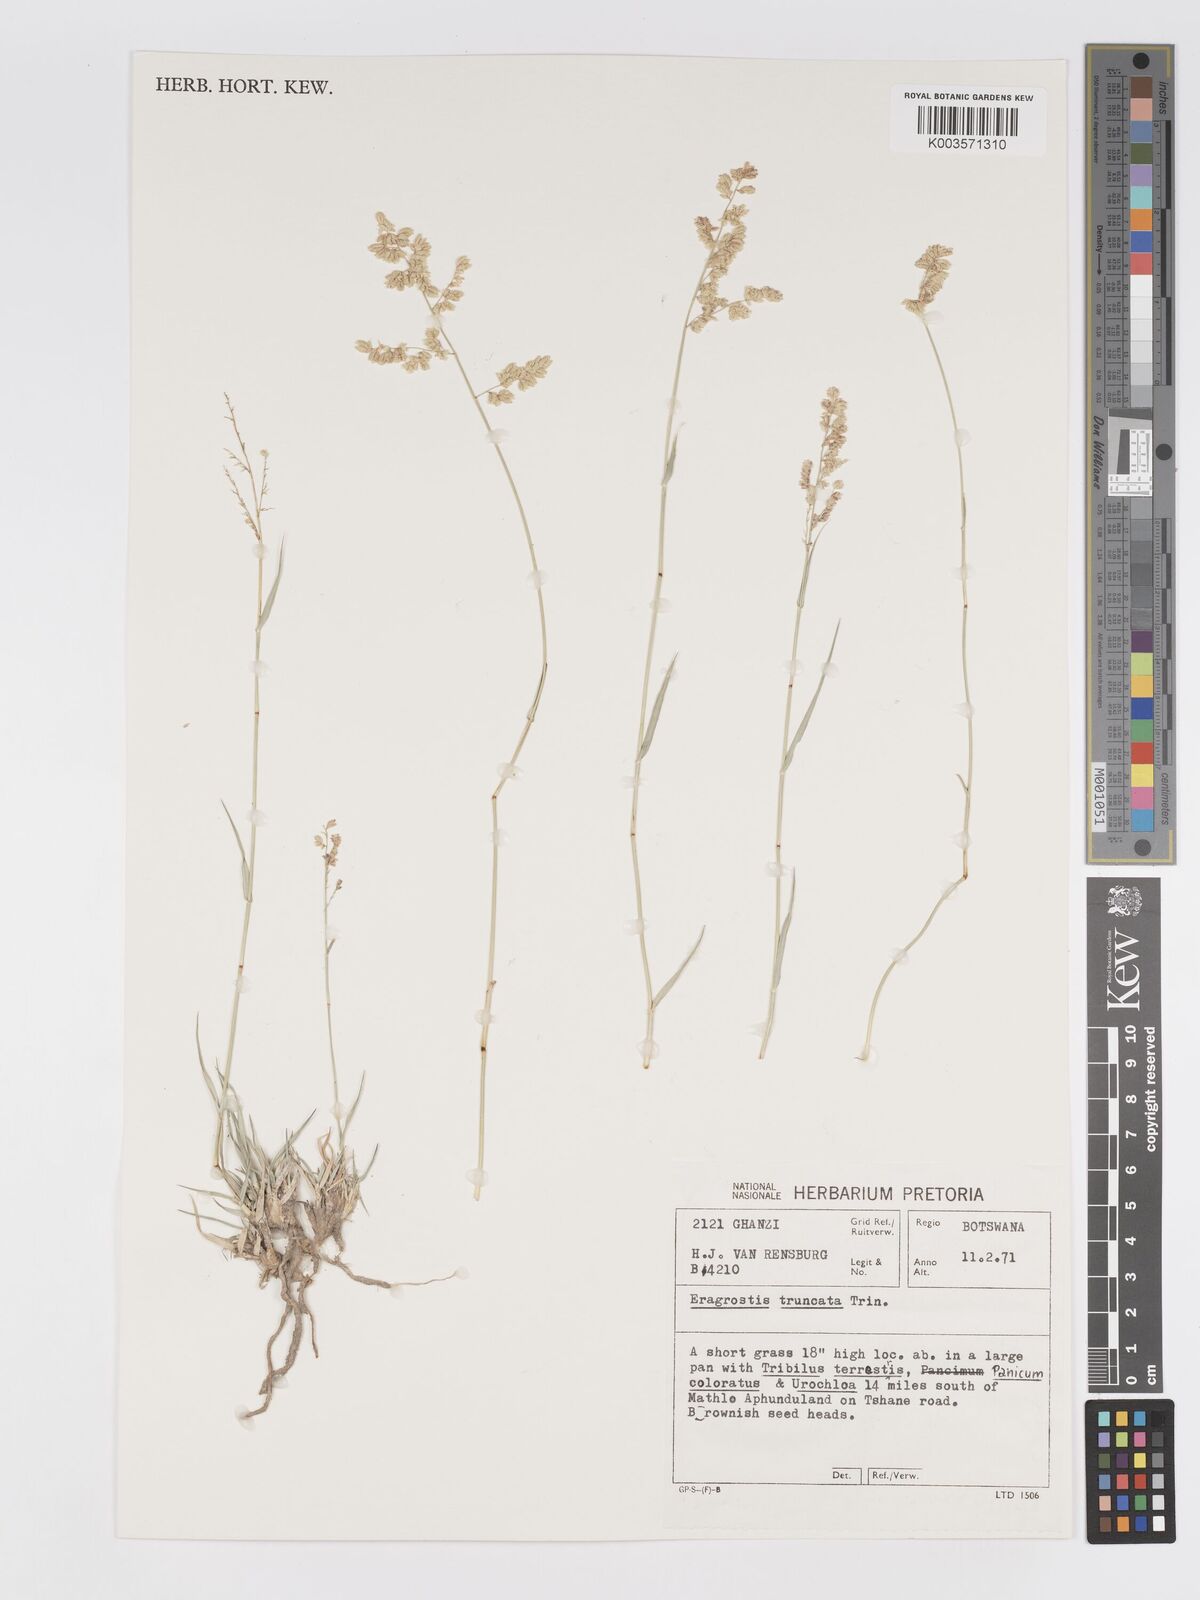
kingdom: Plantae
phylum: Tracheophyta
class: Liliopsida
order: Poales
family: Poaceae
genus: Eragrostis
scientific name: Eragrostis truncata
